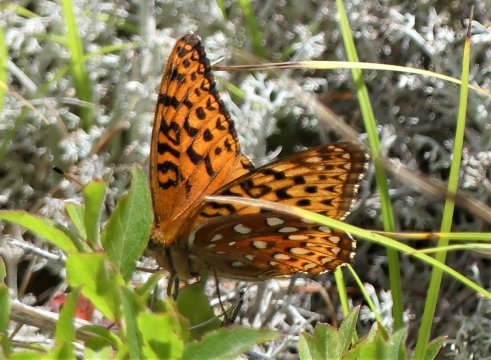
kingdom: Animalia
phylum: Arthropoda
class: Insecta
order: Lepidoptera
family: Nymphalidae
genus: Speyeria
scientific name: Speyeria aphrodite
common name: Aphrodite Fritillary
